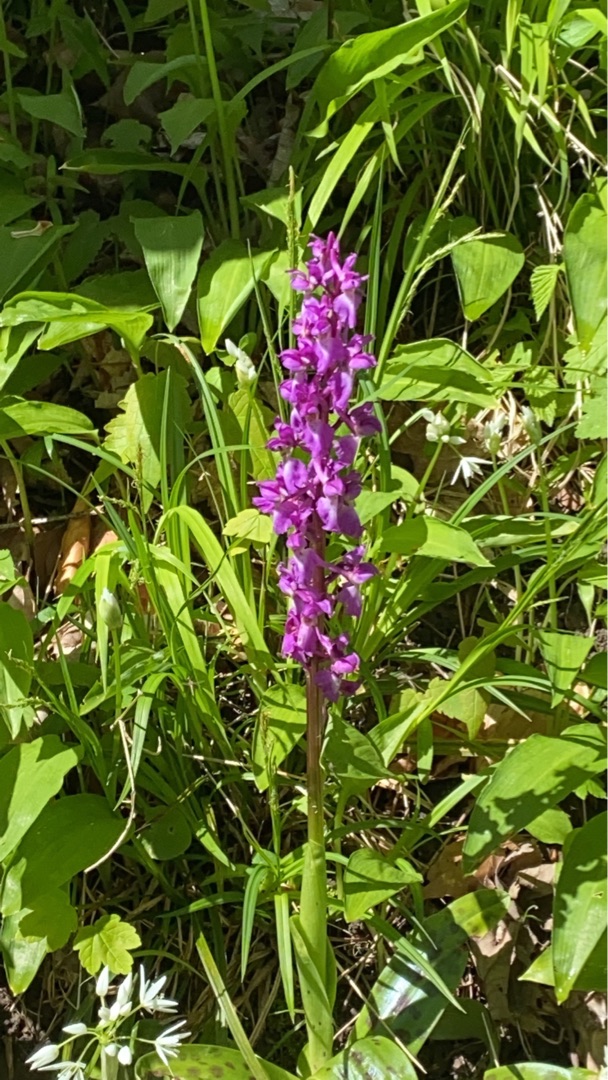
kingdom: Plantae
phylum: Tracheophyta
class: Liliopsida
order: Asparagales
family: Orchidaceae
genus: Orchis
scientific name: Orchis mascula
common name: Tyndakset gøgeurt
